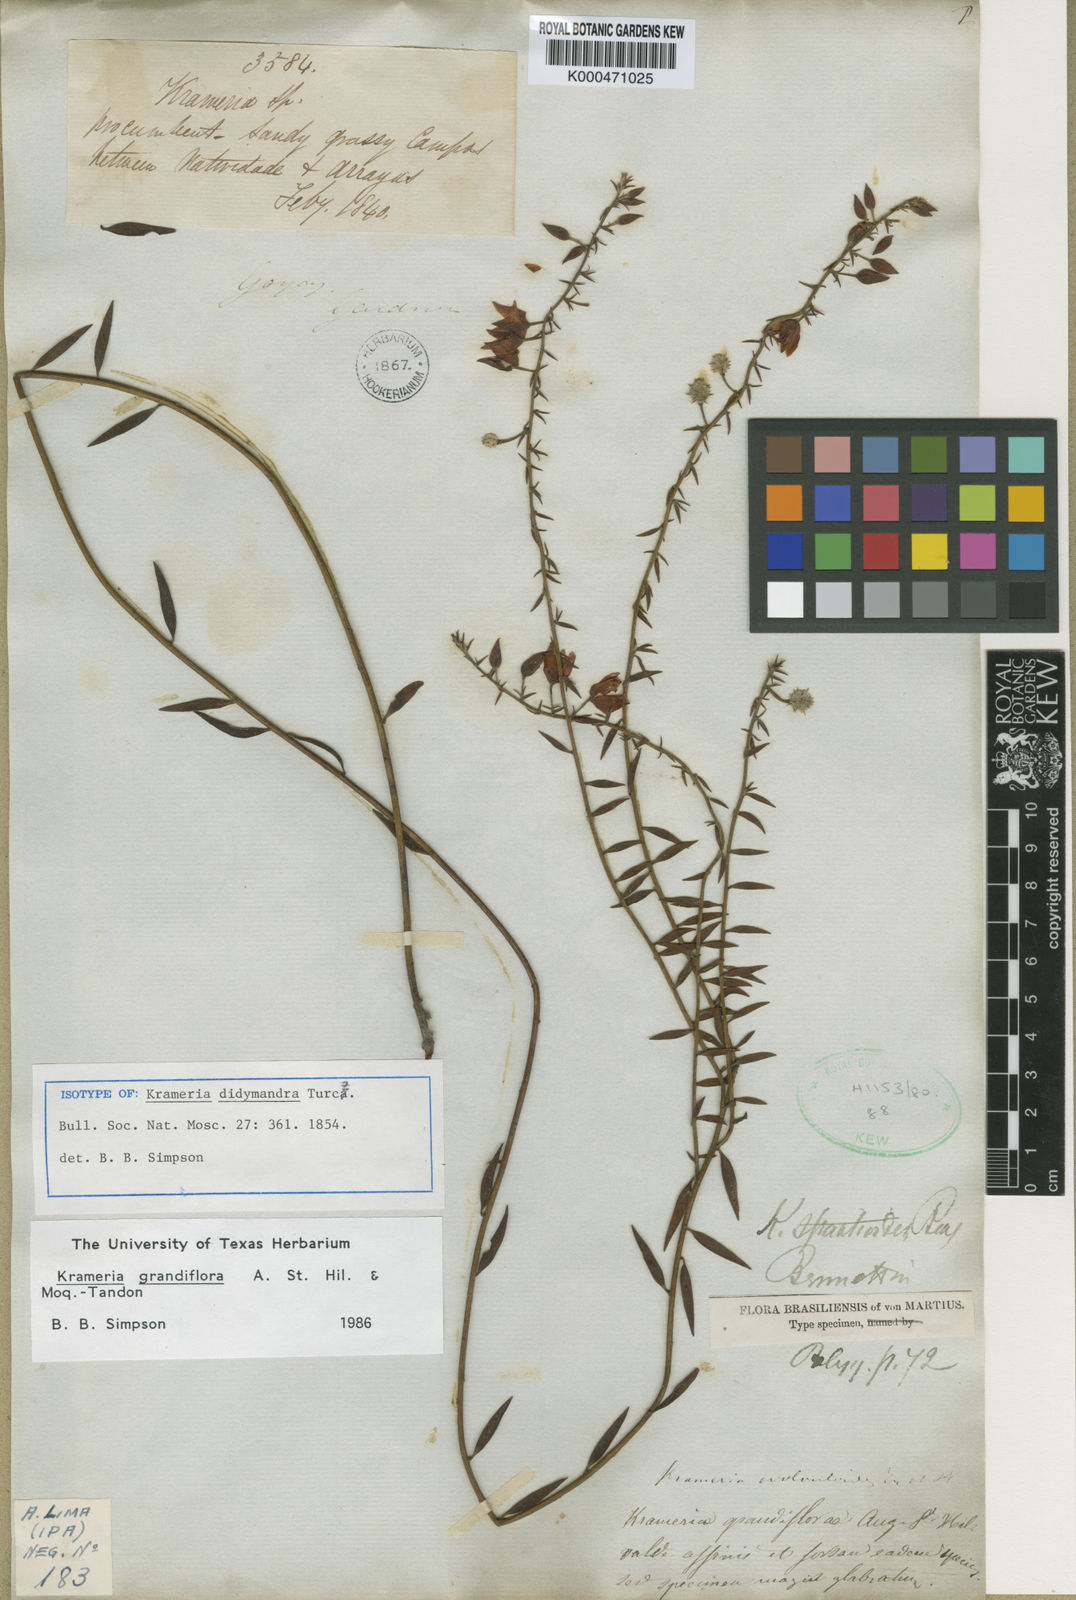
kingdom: Plantae
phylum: Tracheophyta
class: Magnoliopsida
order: Zygophyllales
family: Krameriaceae
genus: Krameria
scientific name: Krameria grandiflora
